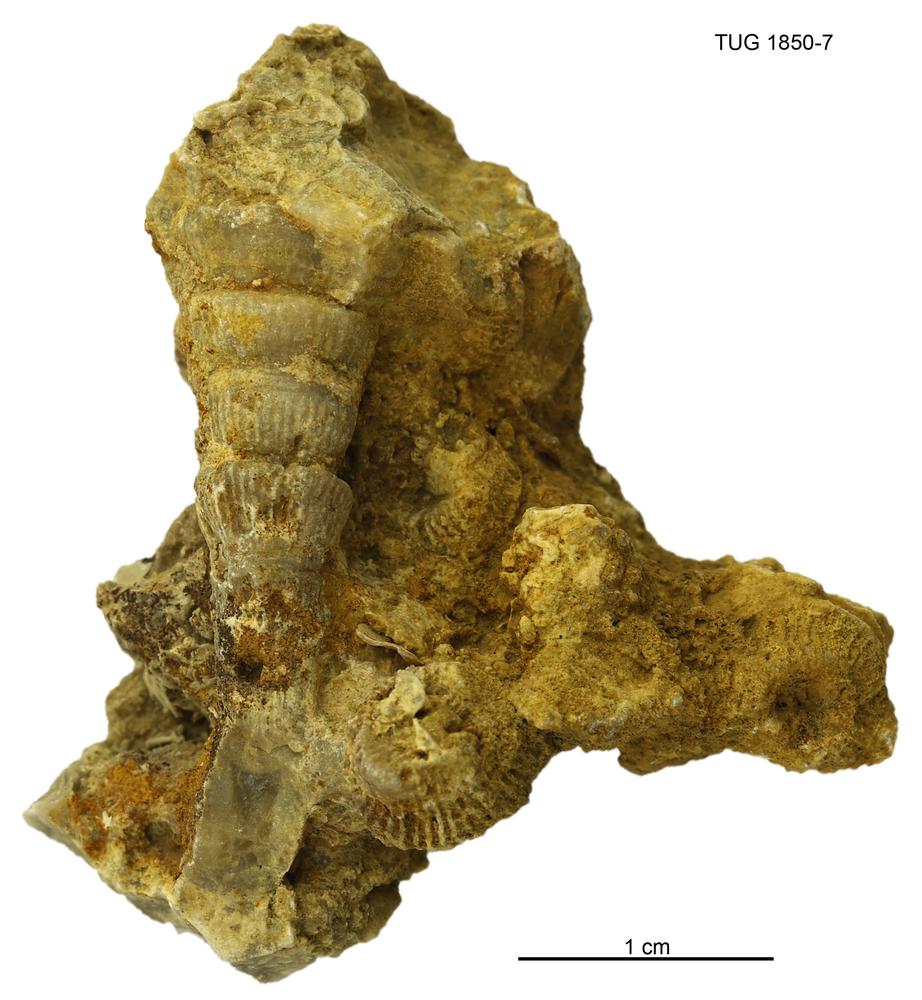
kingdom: Animalia
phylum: Cnidaria
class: Anthozoa
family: Cyathophyllidae
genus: Cyathophyllum
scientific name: Cyathophyllum
